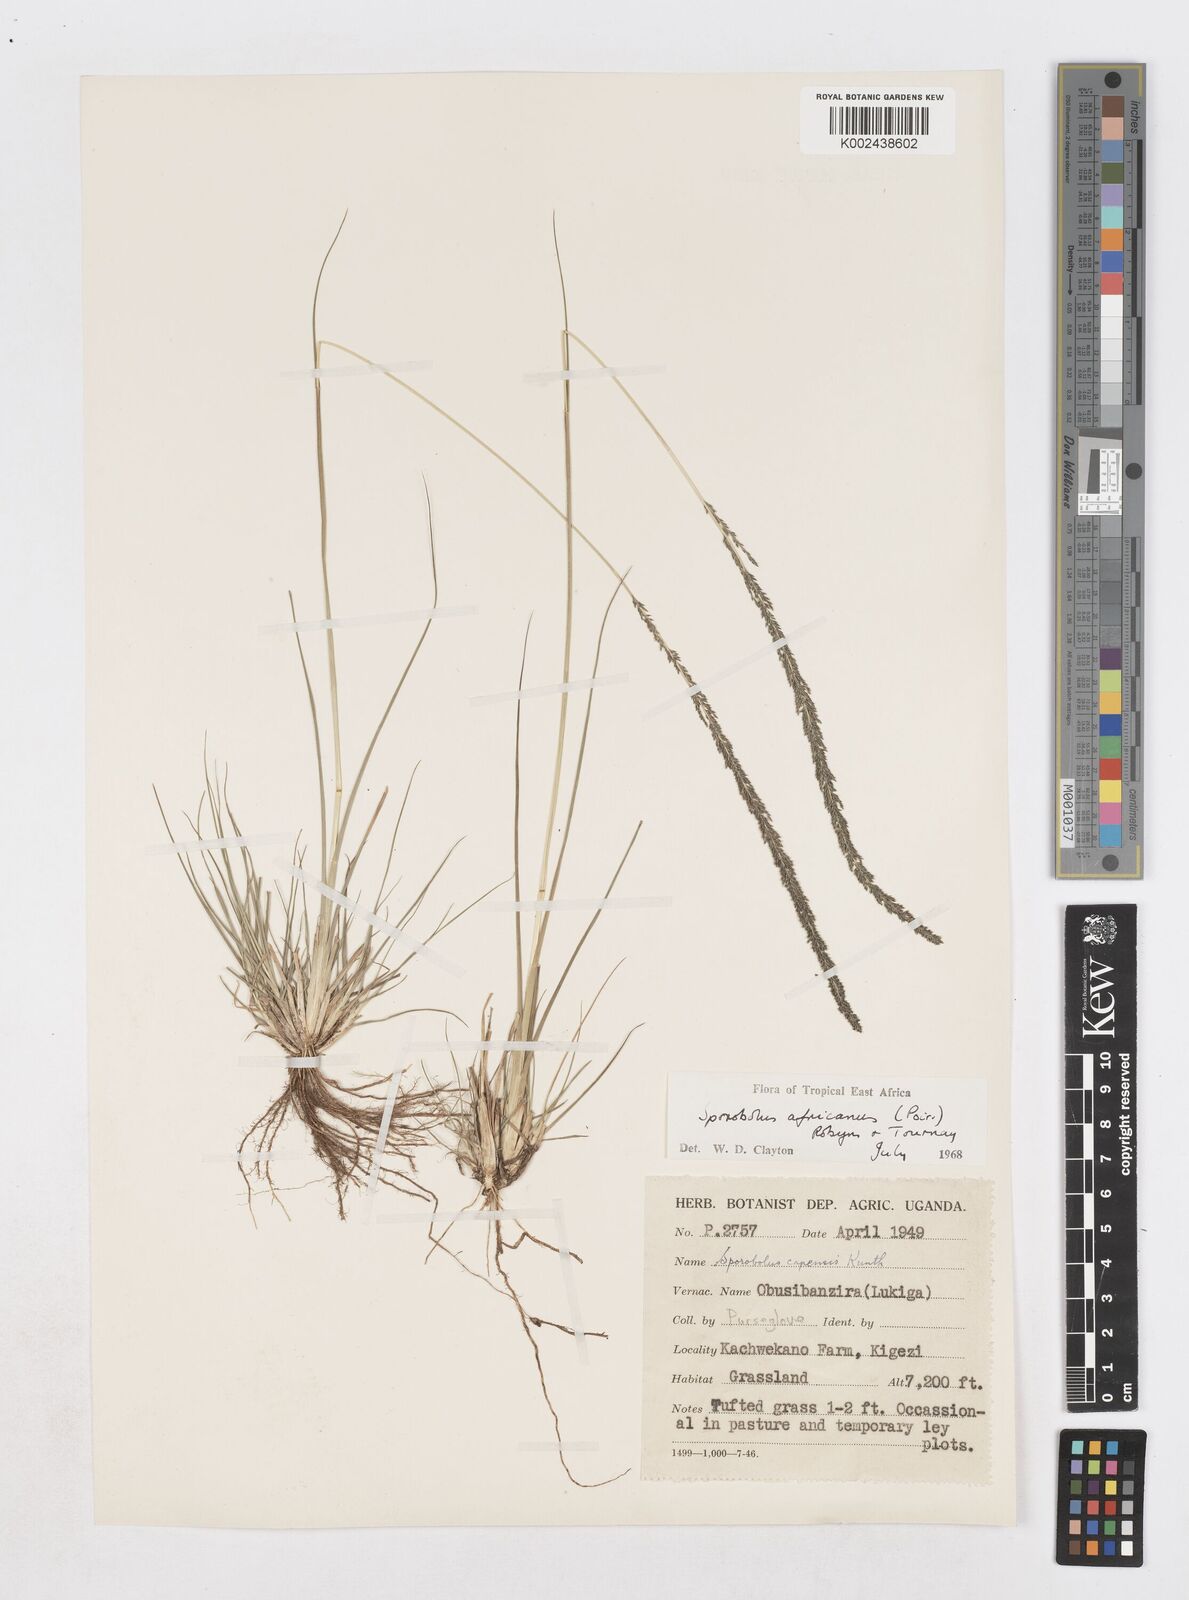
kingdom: Plantae
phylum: Tracheophyta
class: Liliopsida
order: Poales
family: Poaceae
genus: Sporobolus
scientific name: Sporobolus africanus
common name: African dropseed
